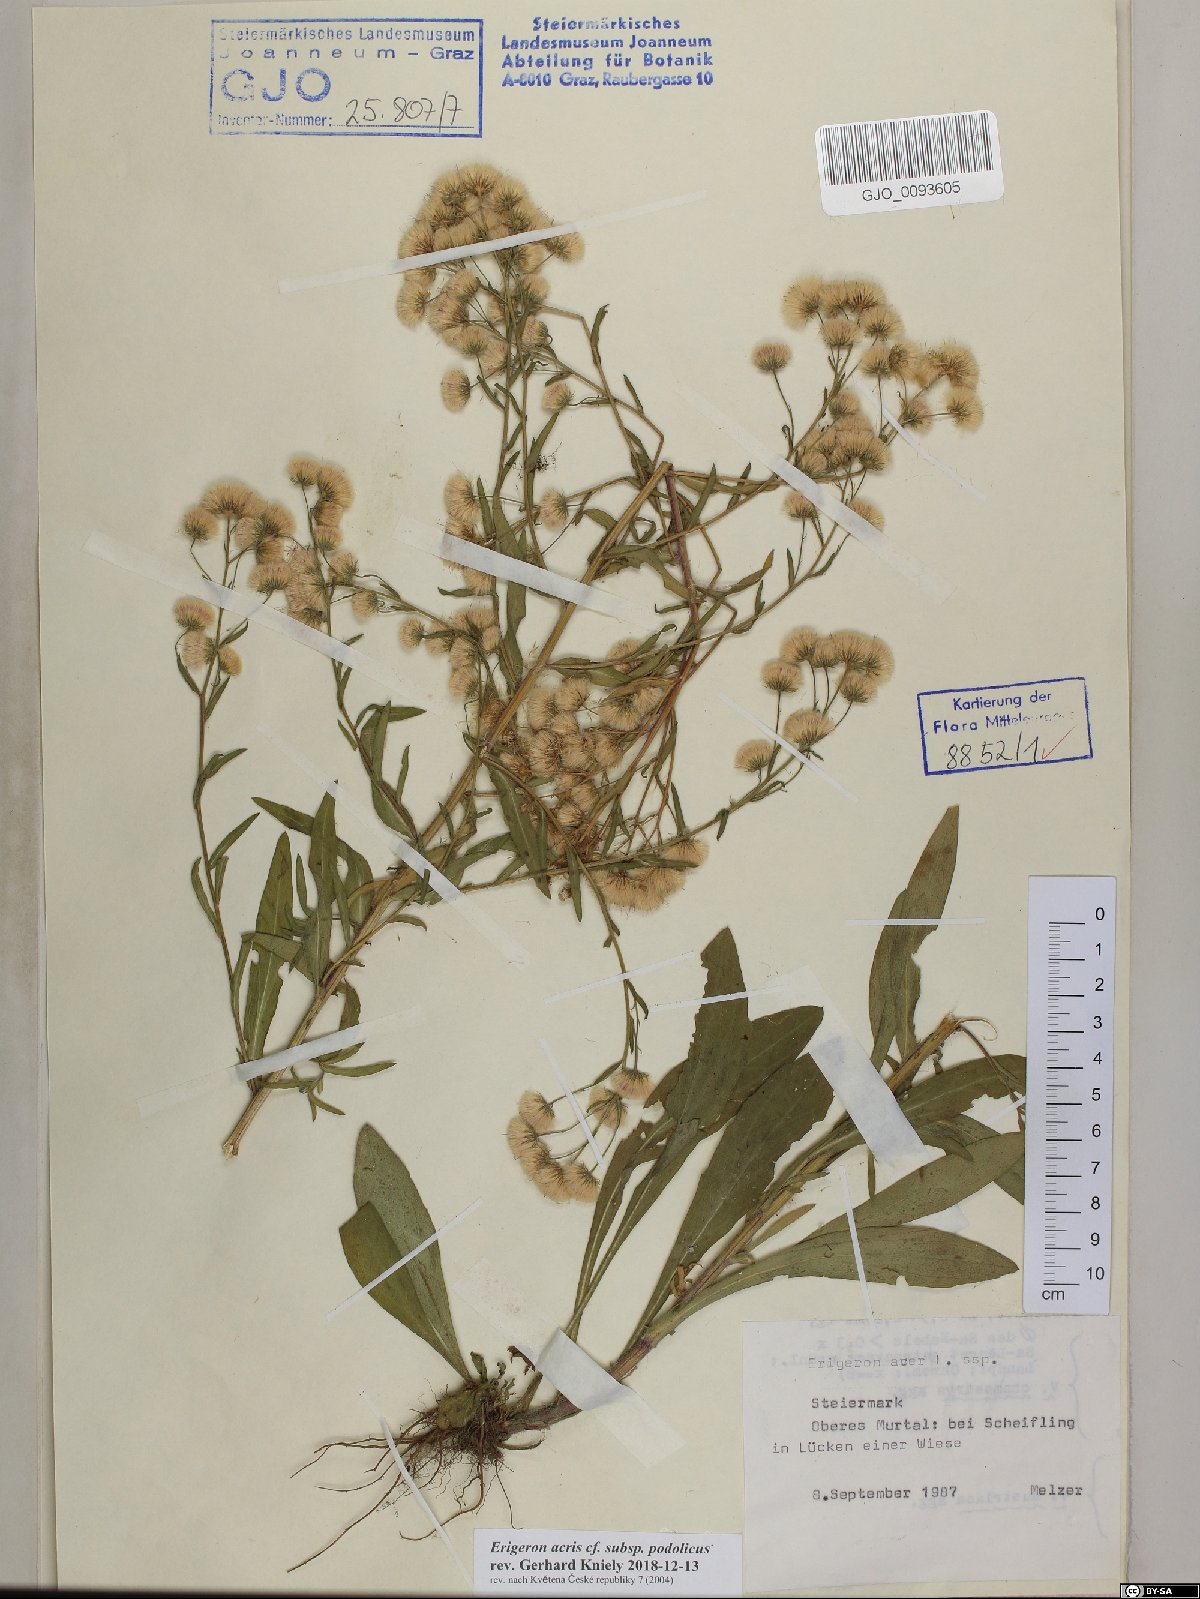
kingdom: Plantae
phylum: Tracheophyta
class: Magnoliopsida
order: Asterales
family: Asteraceae
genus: Erigeron
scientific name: Erigeron podolicus
